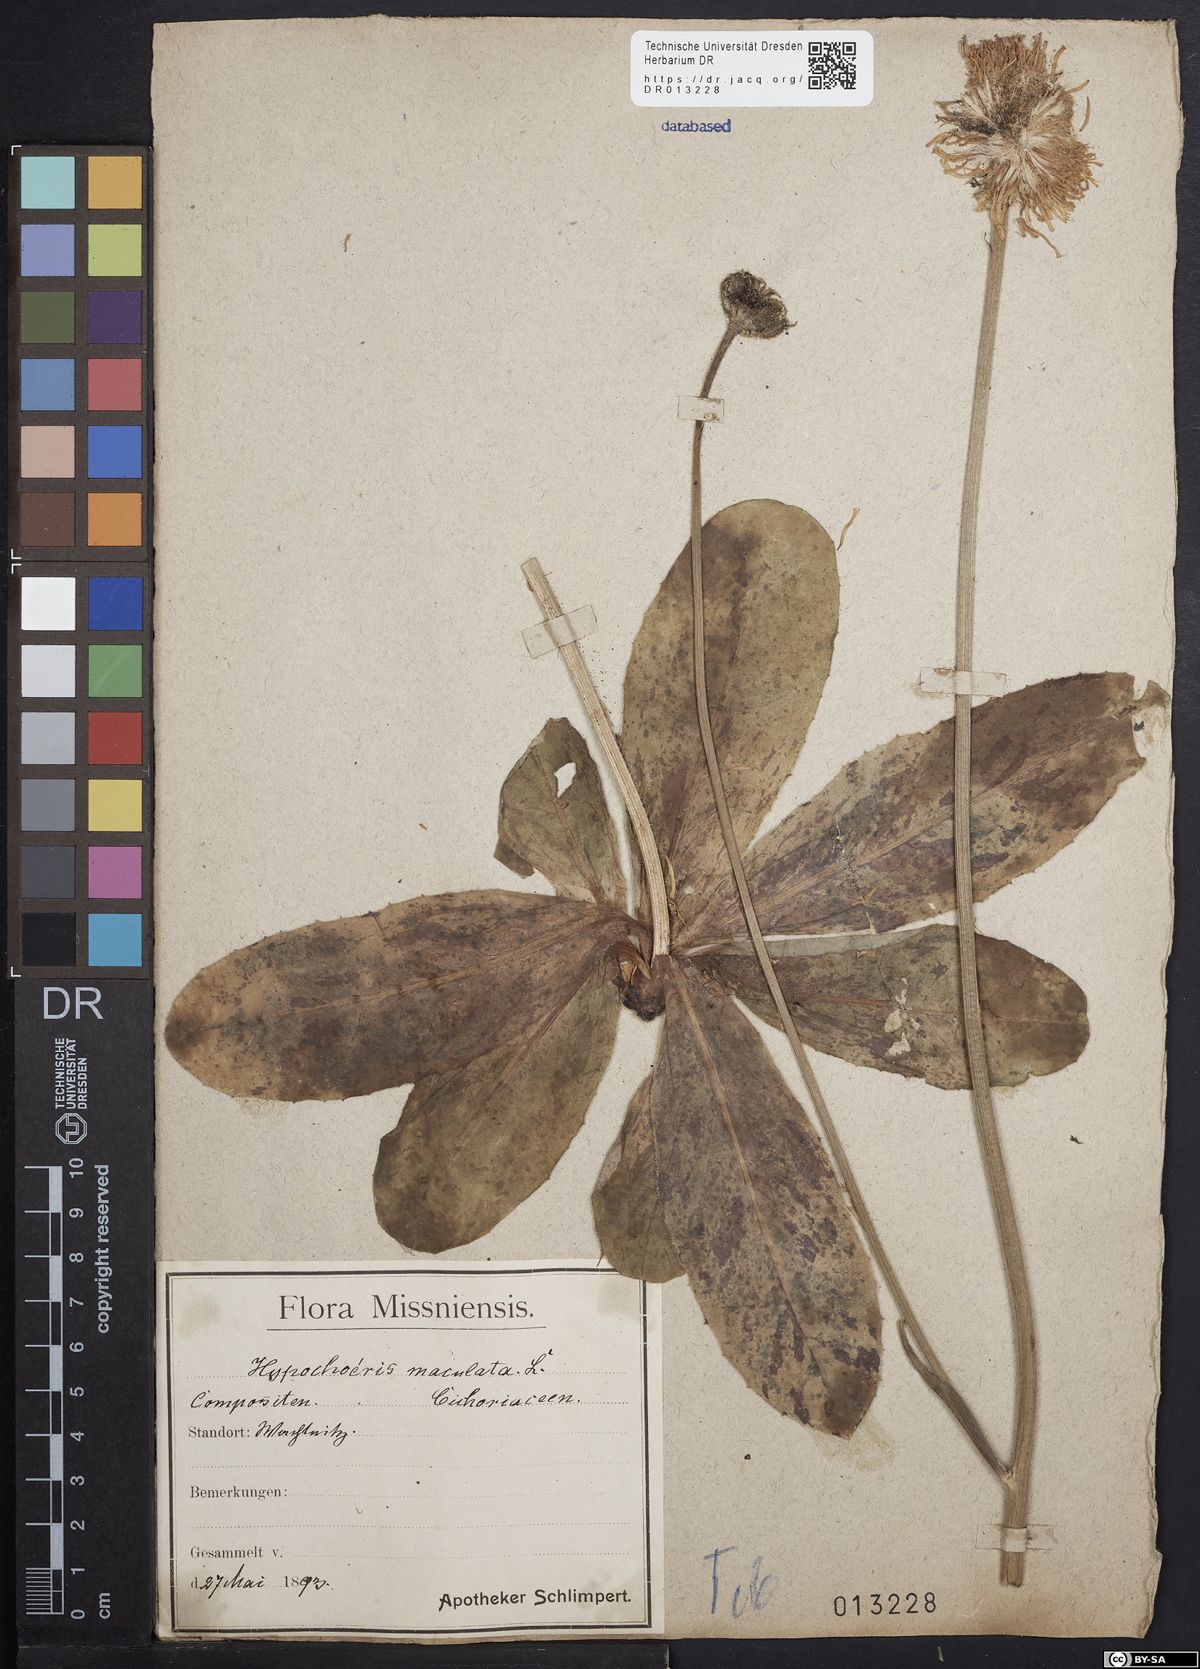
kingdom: Plantae
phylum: Tracheophyta
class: Magnoliopsida
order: Asterales
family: Asteraceae
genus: Trommsdorffia
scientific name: Trommsdorffia maculata
